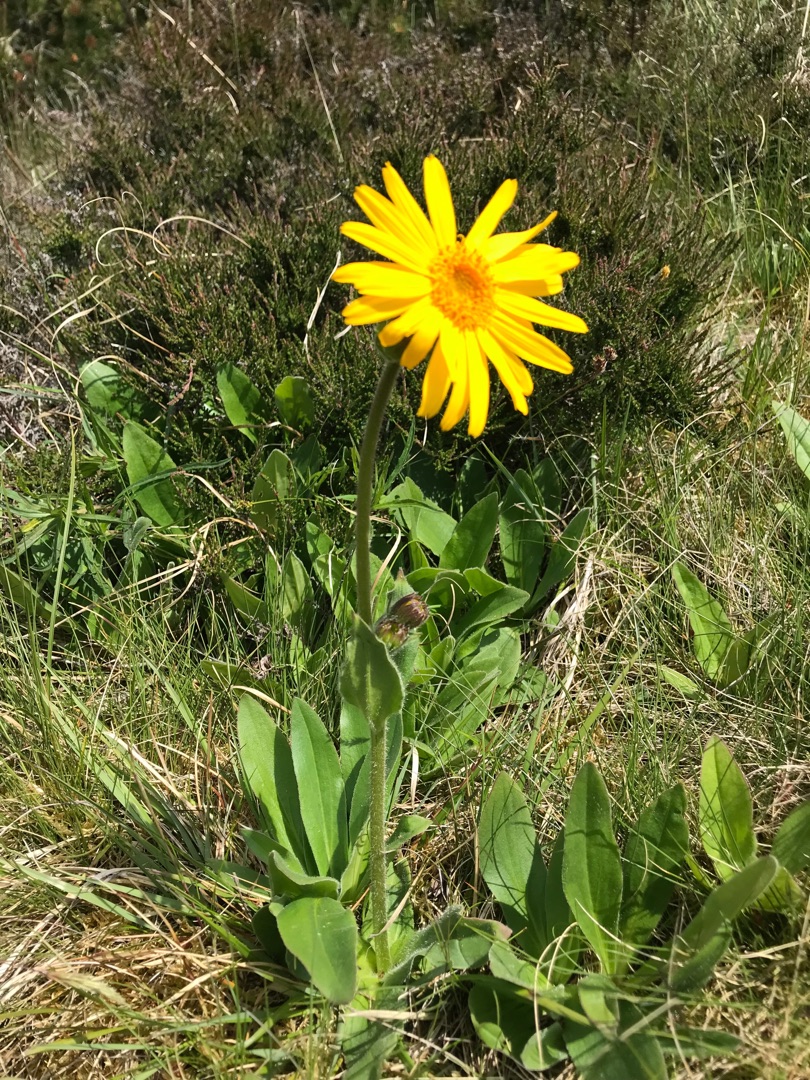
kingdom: Plantae
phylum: Tracheophyta
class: Magnoliopsida
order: Asterales
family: Asteraceae
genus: Arnica
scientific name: Arnica montana
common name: Guldblomme
